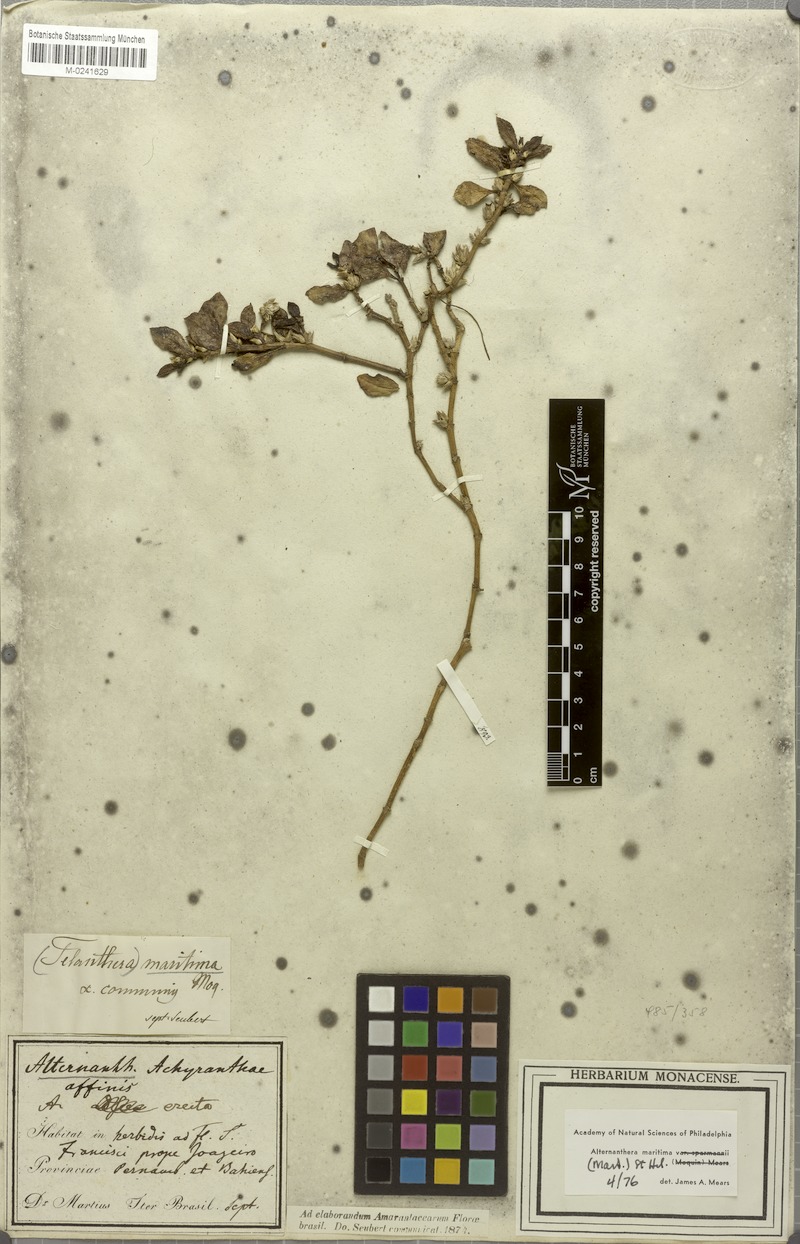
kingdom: Plantae
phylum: Tracheophyta
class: Magnoliopsida
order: Caryophyllales
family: Amaranthaceae
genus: Alternanthera
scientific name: Alternanthera littoralis
